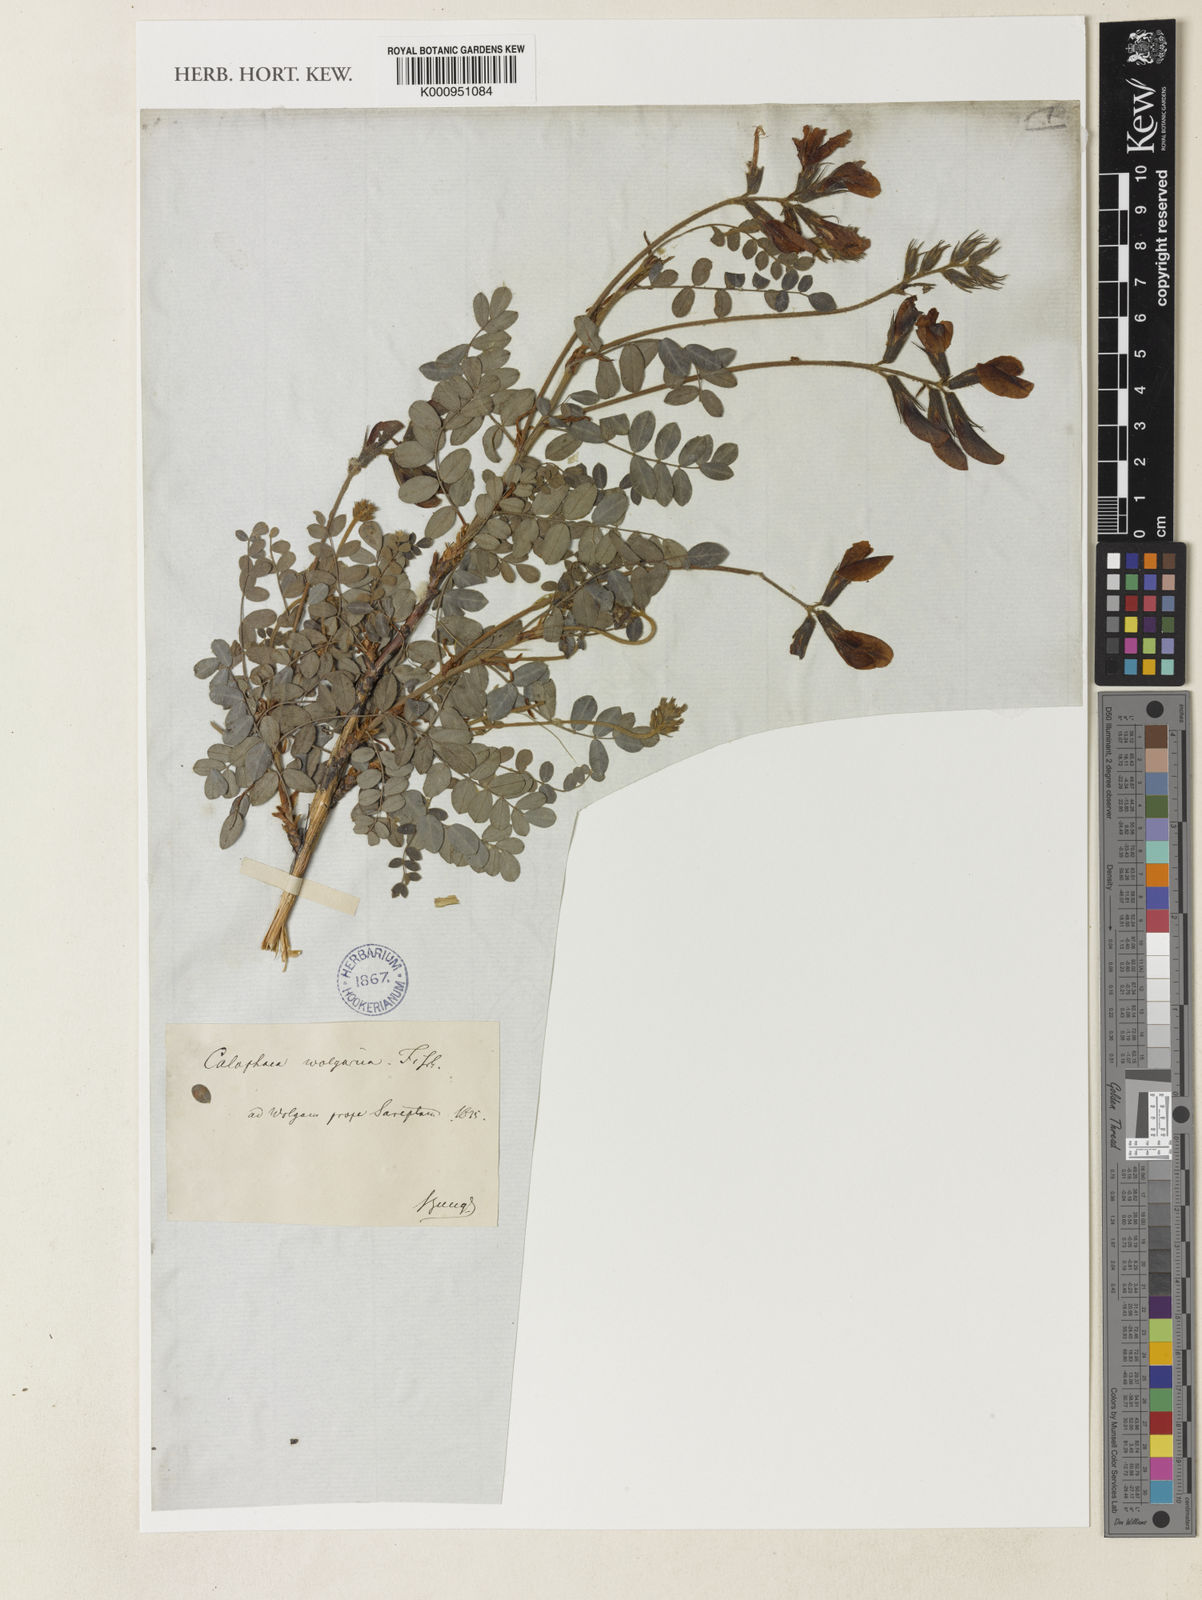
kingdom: Plantae
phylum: Tracheophyta
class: Magnoliopsida
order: Fabales
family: Fabaceae
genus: Calophaca
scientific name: Calophaca
